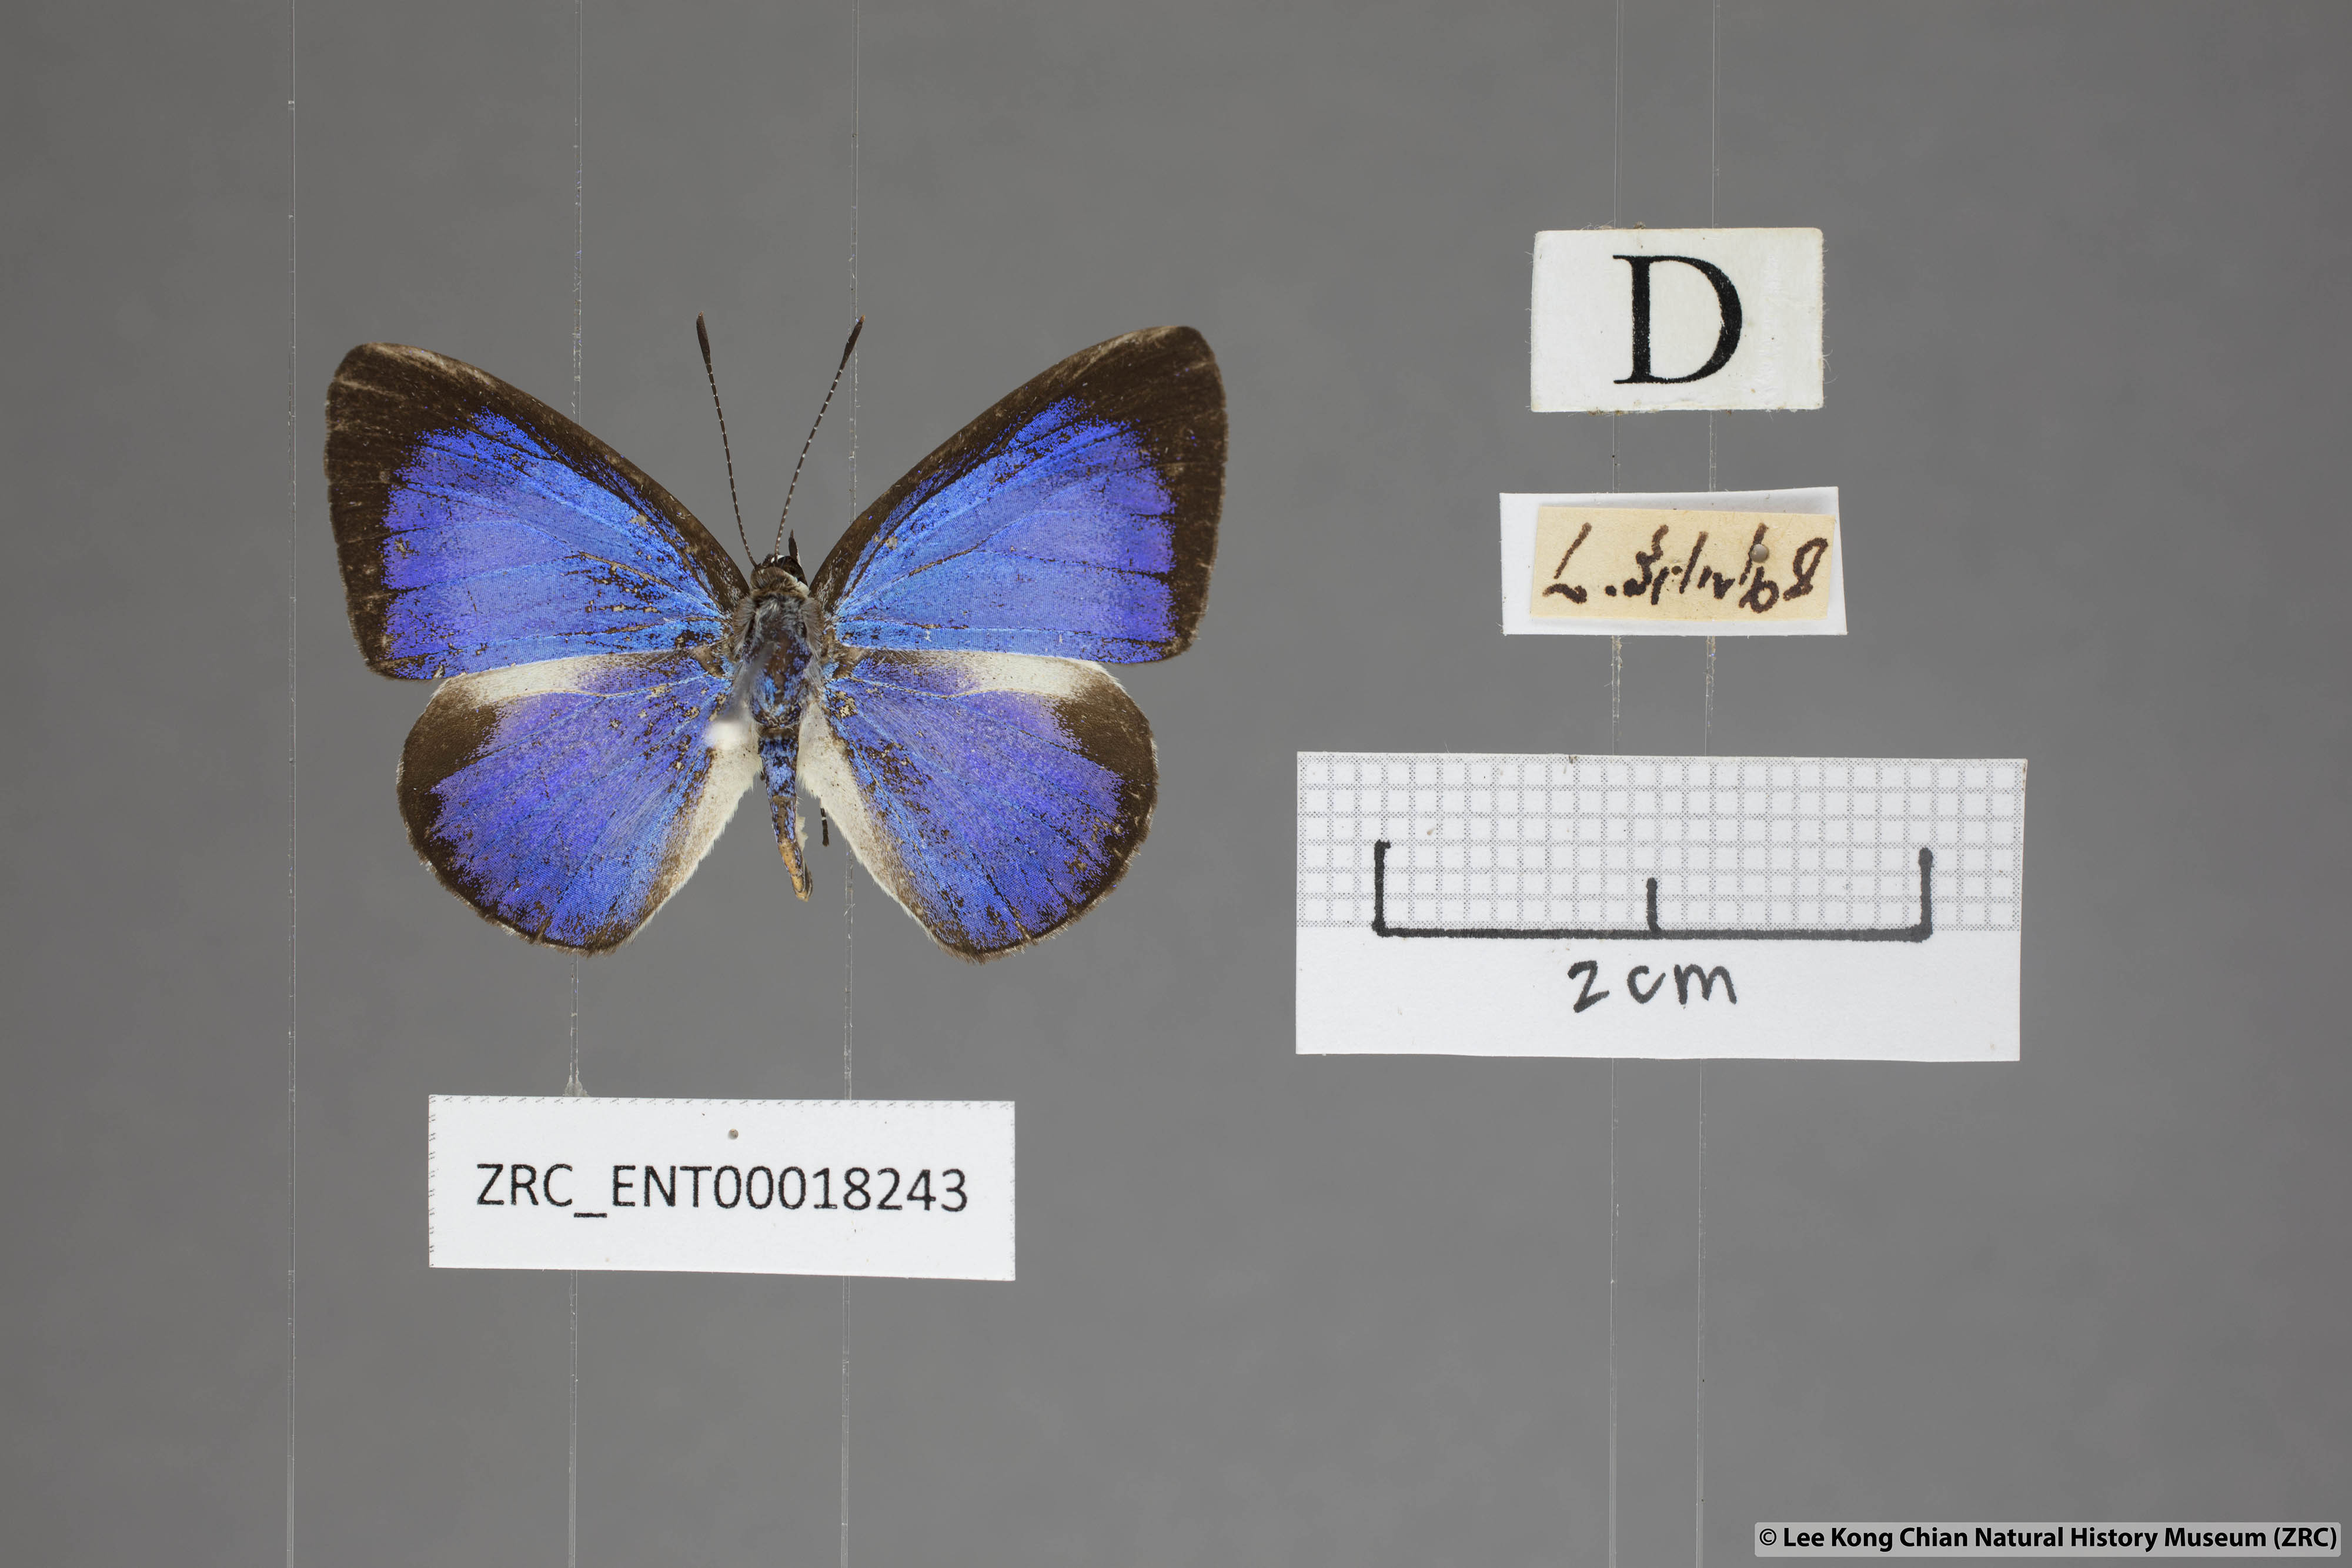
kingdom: Animalia
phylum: Arthropoda
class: Insecta
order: Lepidoptera
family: Lycaenidae
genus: Lycaenopsis
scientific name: Lycaenopsis haraldus
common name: Felder's hedge blue
